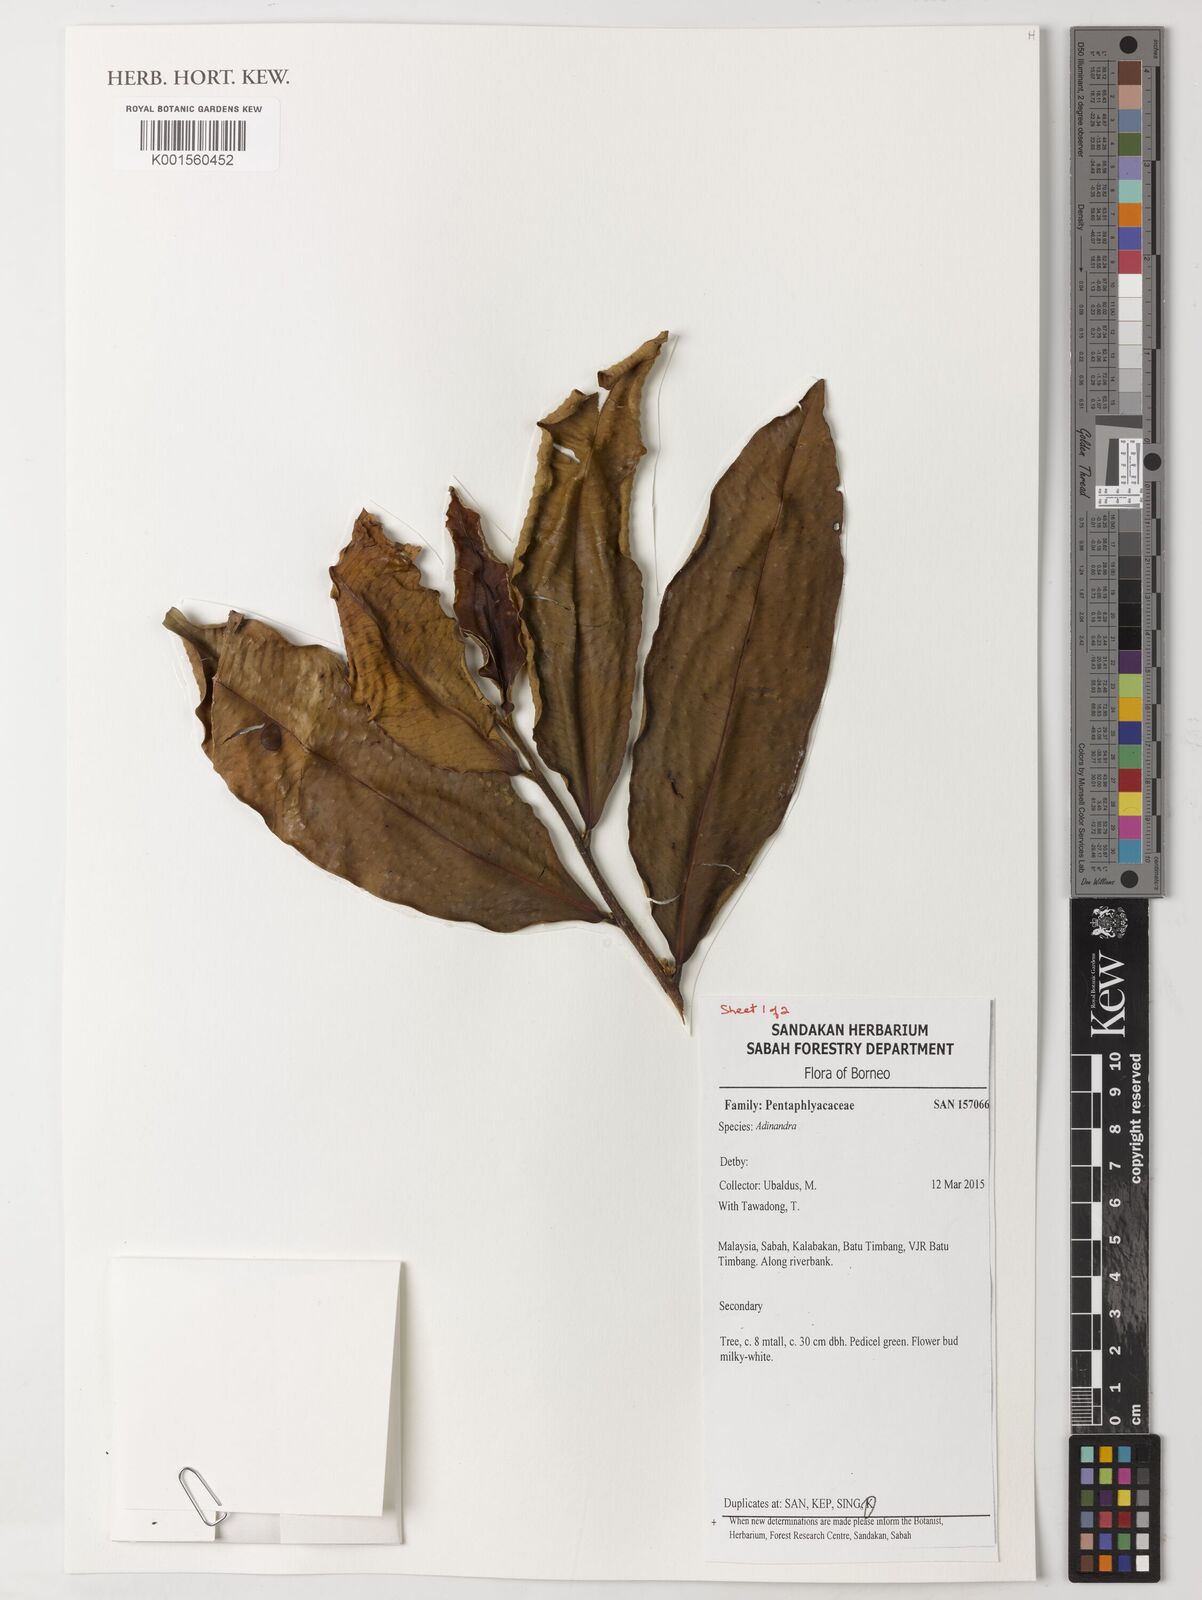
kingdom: Plantae
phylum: Tracheophyta
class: Magnoliopsida
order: Ericales
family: Pentaphylacaceae
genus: Adinandra
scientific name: Adinandra
